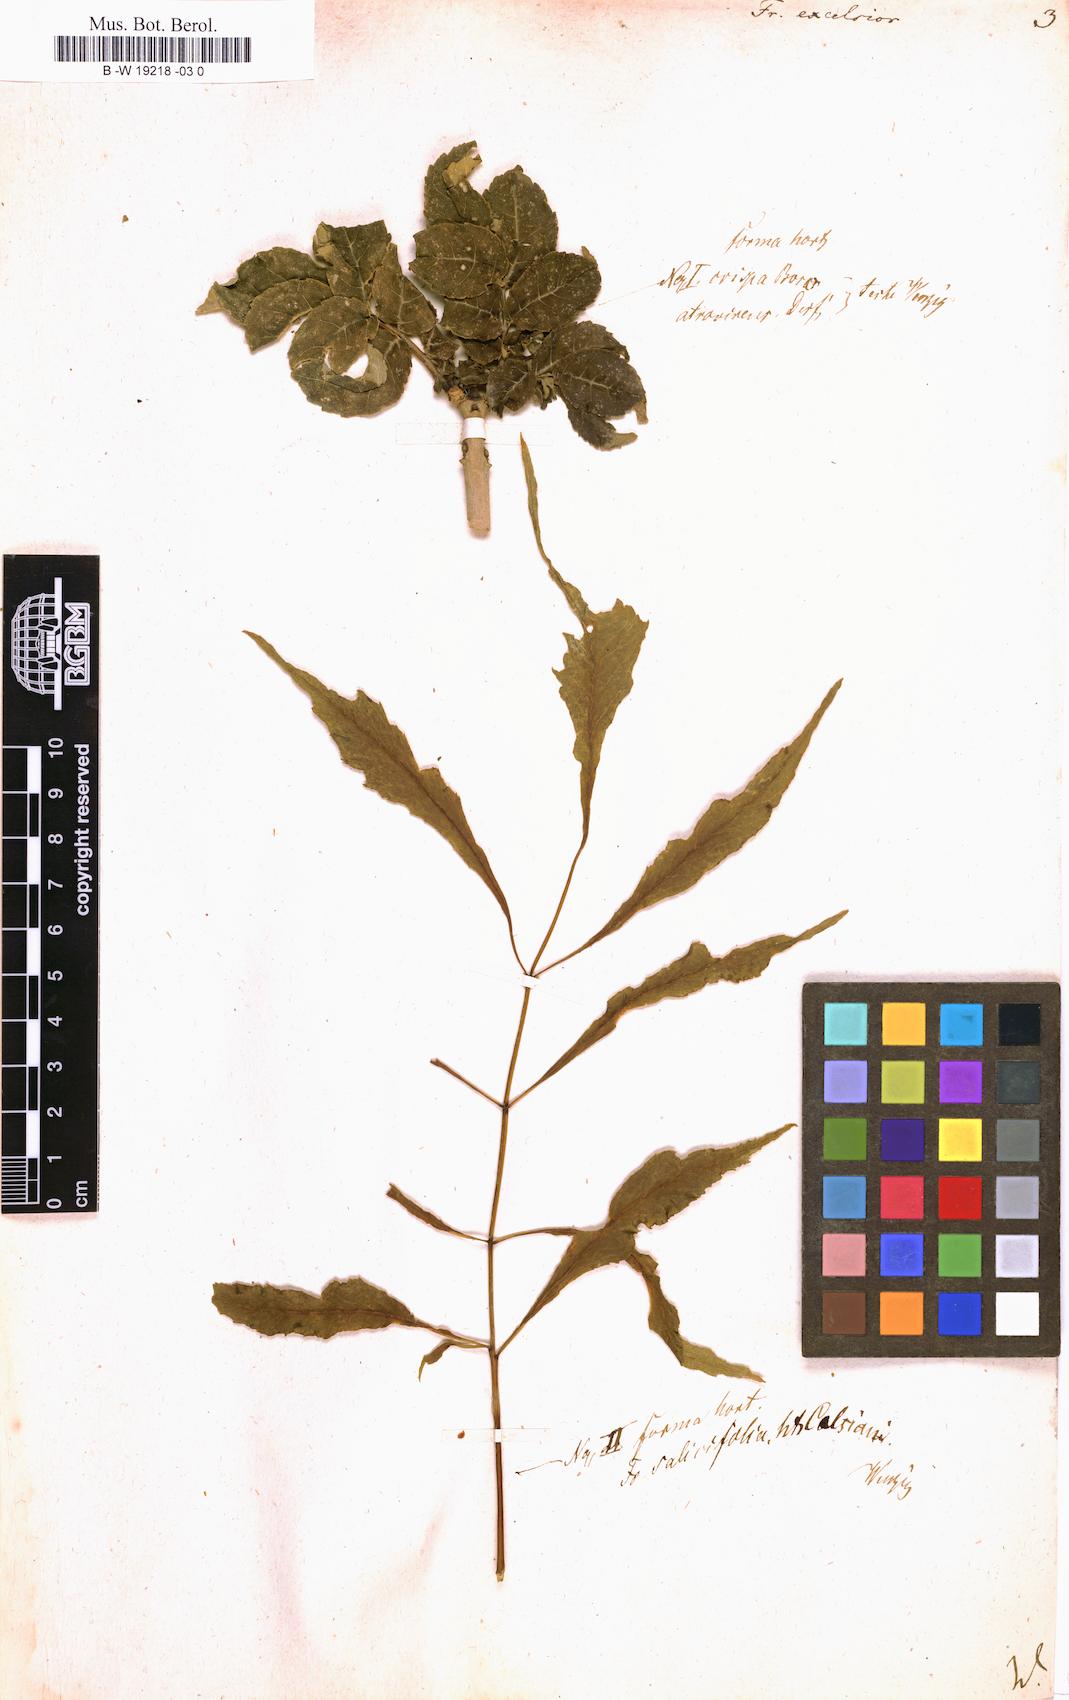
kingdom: Plantae
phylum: Tracheophyta
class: Magnoliopsida
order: Lamiales
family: Oleaceae
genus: Fraxinus
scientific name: Fraxinus excelsior
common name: European ash
